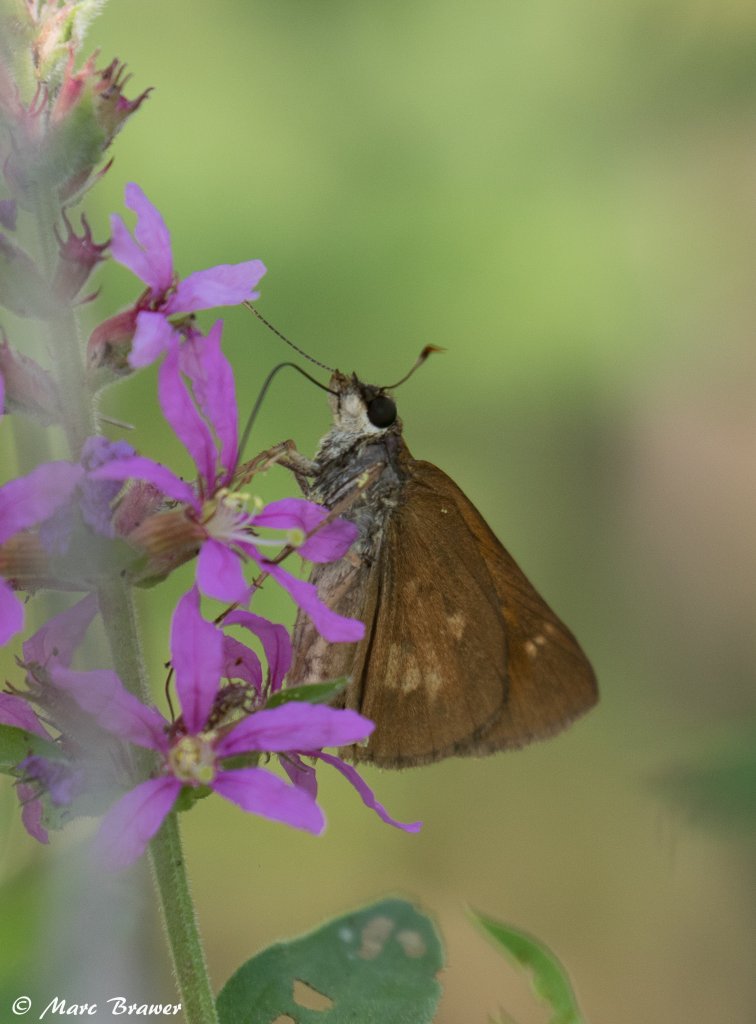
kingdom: Animalia
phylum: Arthropoda
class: Insecta
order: Lepidoptera
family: Hesperiidae
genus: Poanes
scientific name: Poanes viator
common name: Broad-winged Skipper
